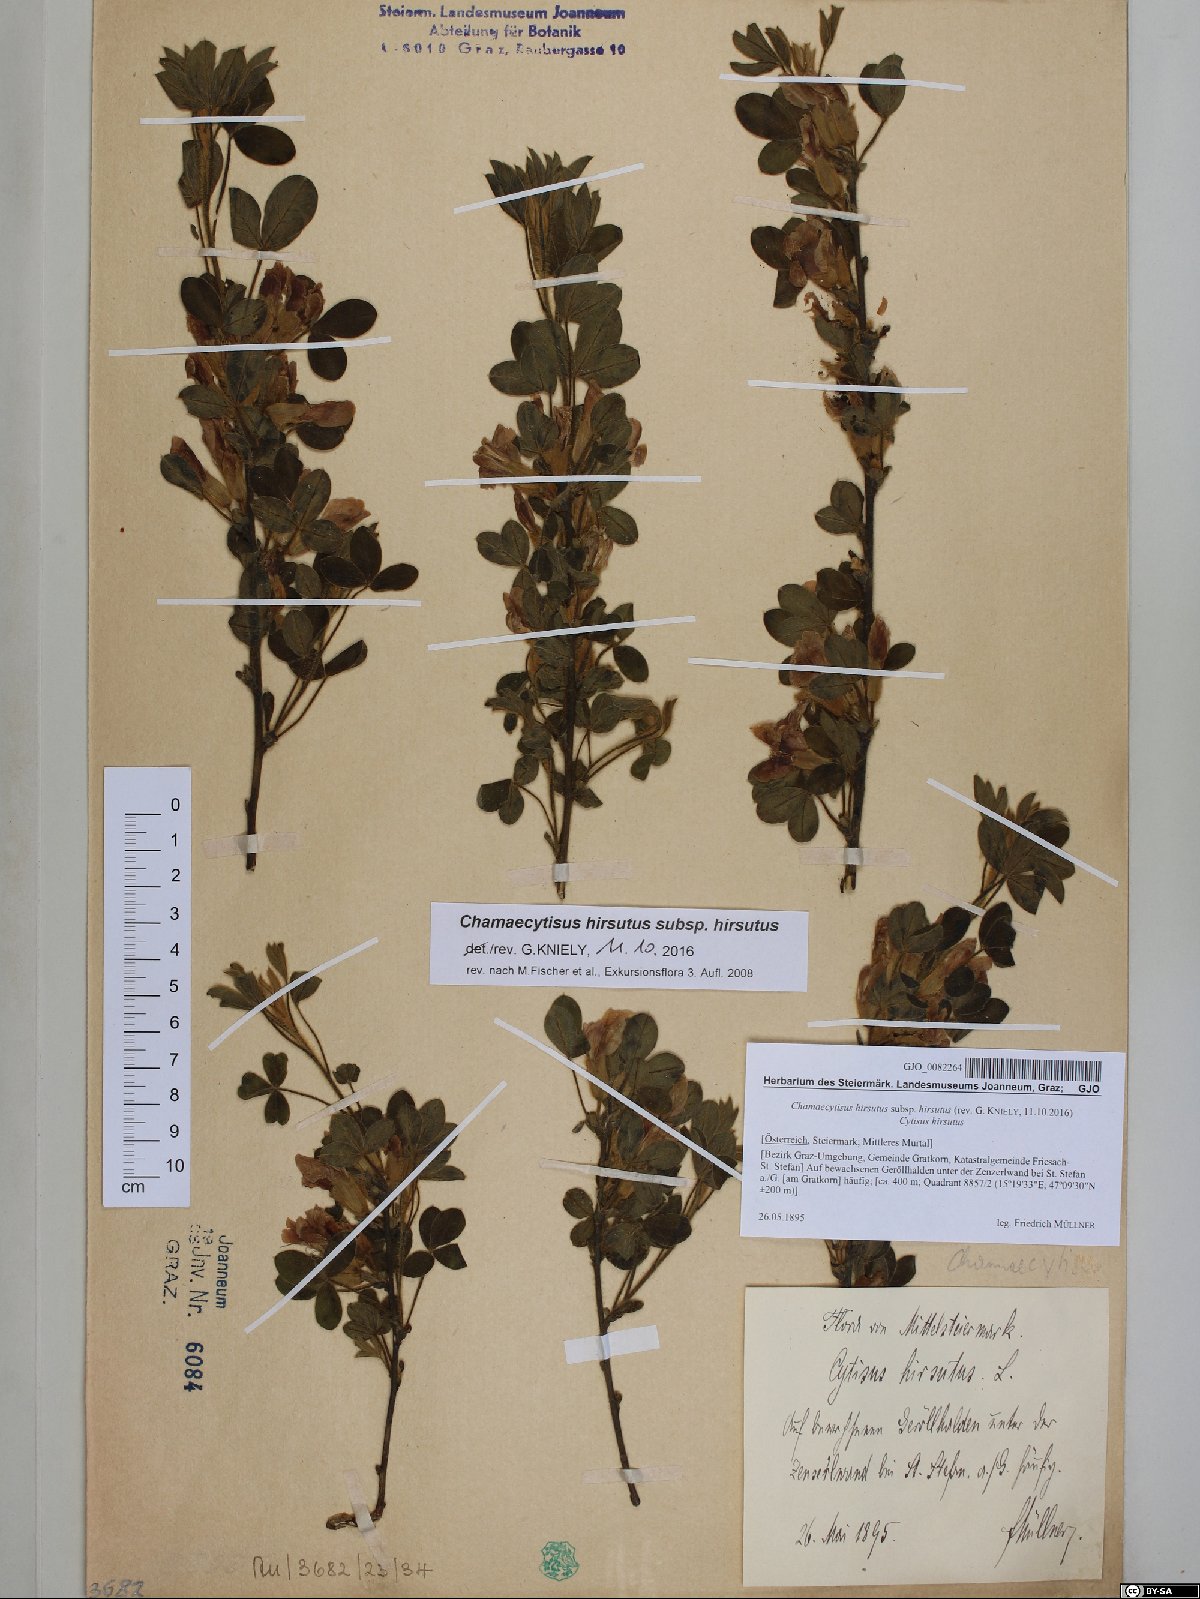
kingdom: Plantae
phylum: Tracheophyta
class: Magnoliopsida
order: Fabales
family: Fabaceae
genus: Chamaecytisus
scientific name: Chamaecytisus hirsutus
